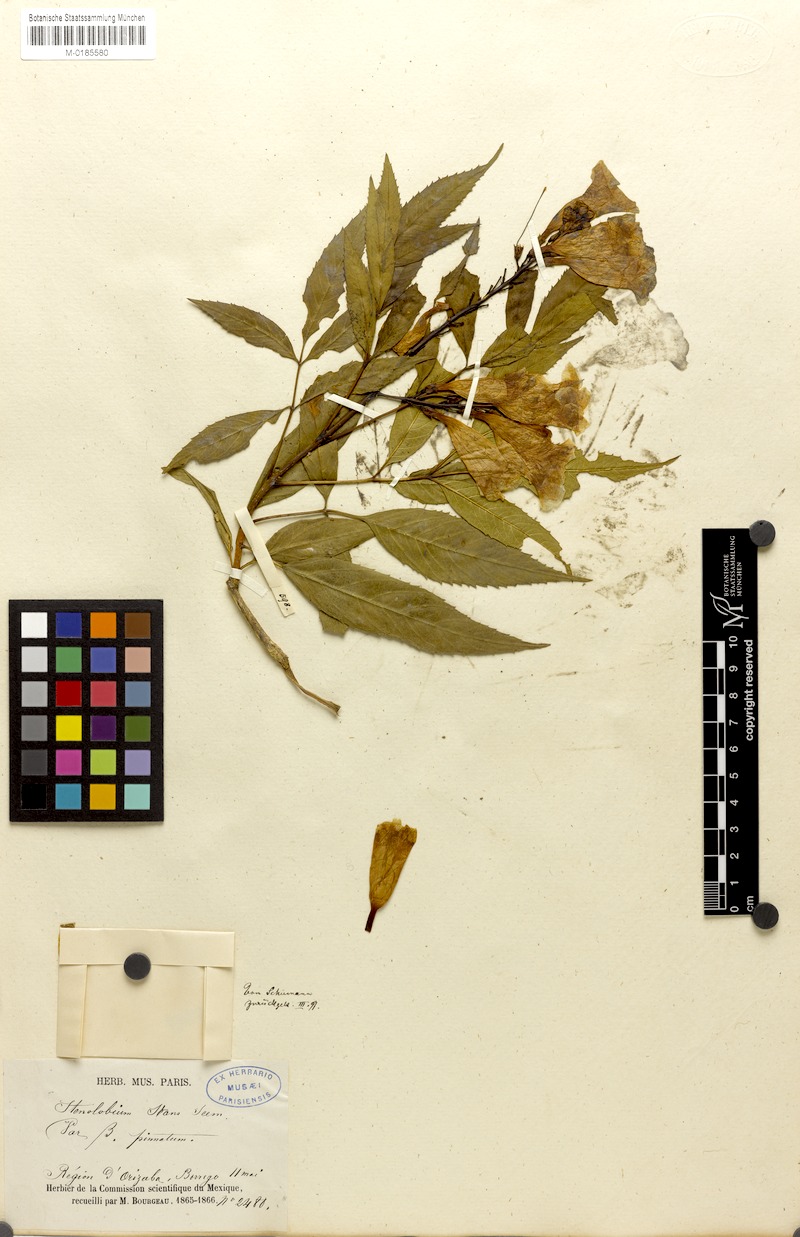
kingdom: Plantae
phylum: Tracheophyta
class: Magnoliopsida
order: Lamiales
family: Bignoniaceae
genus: Tecoma
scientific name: Tecoma stans
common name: Yellow trumpetbush
